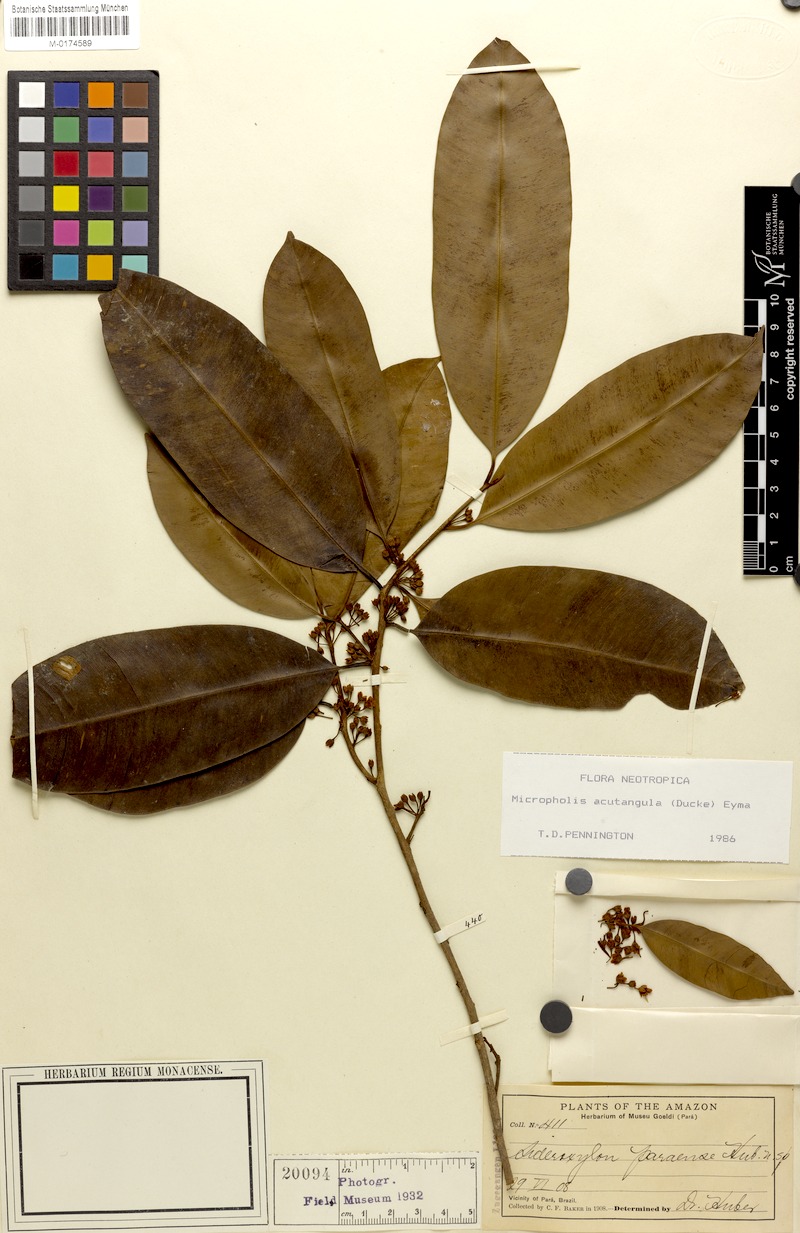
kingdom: Plantae
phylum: Tracheophyta
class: Magnoliopsida
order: Ericales
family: Sapotaceae
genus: Sideroxylon
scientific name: Sideroxylon paraense
